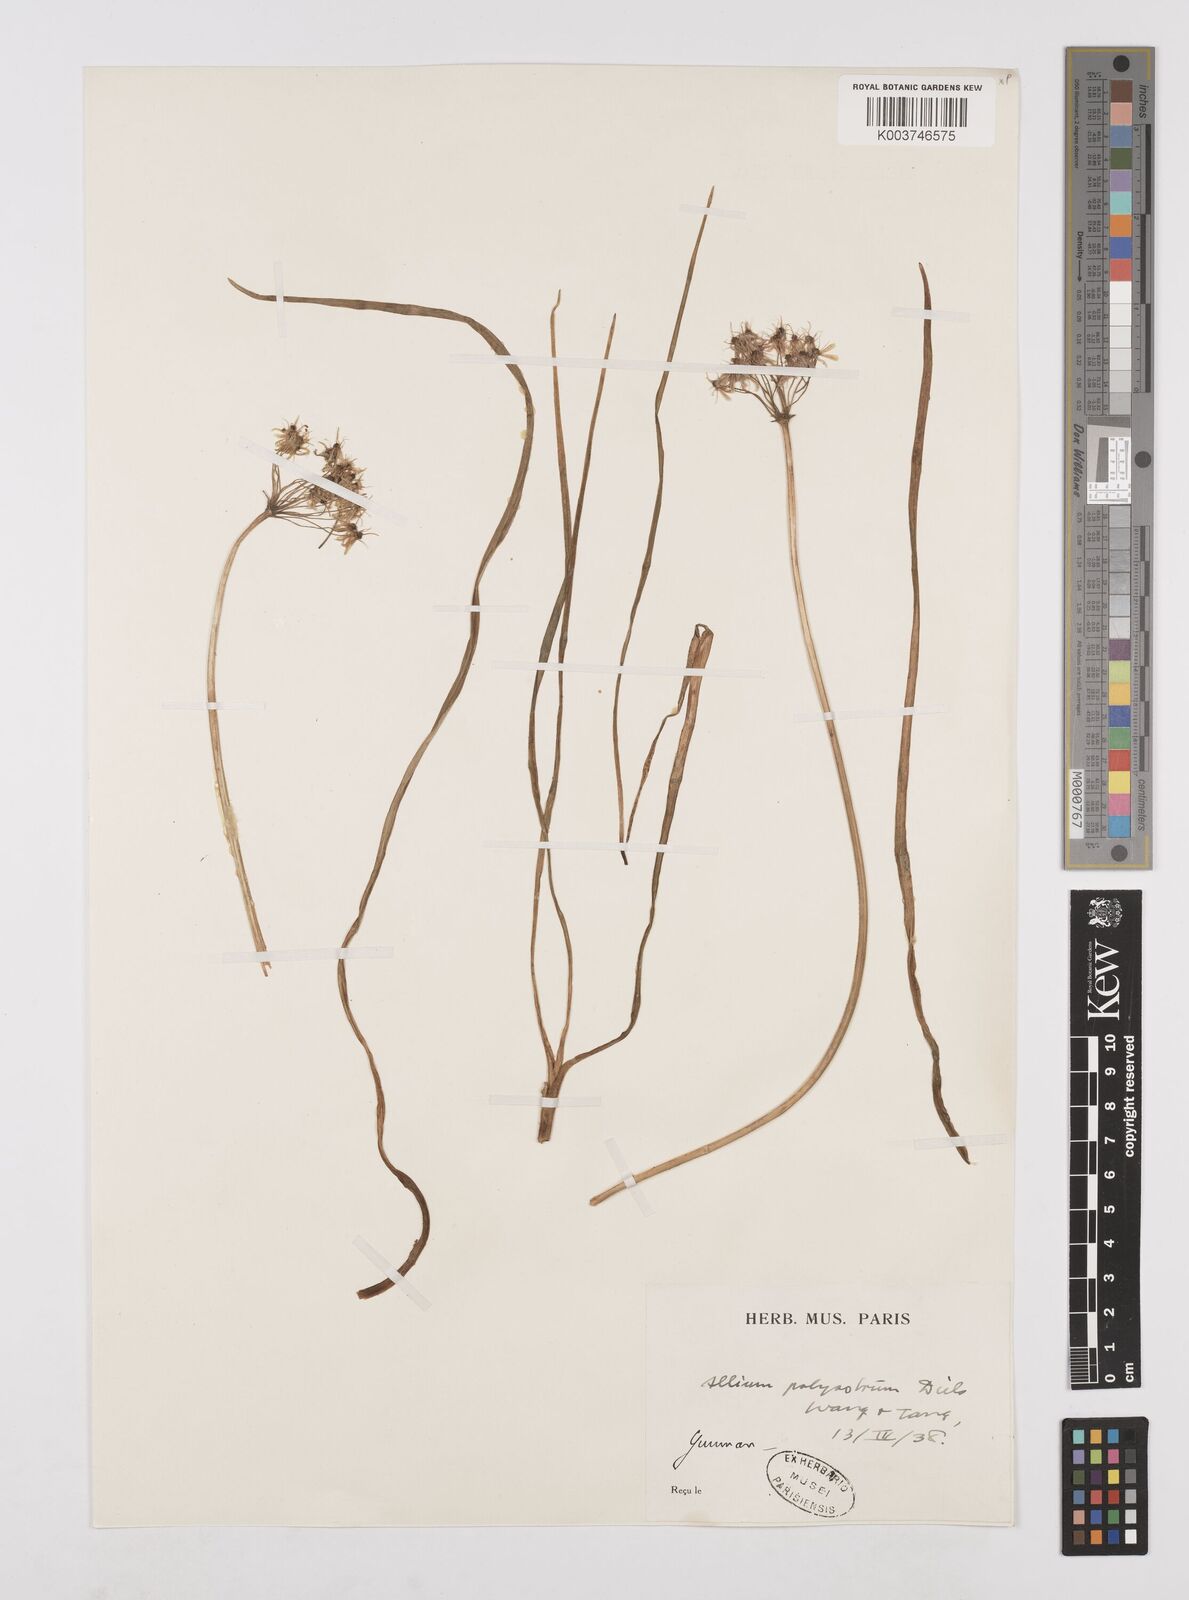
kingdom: Plantae
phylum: Tracheophyta
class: Liliopsida
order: Asparagales
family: Amaryllidaceae
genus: Allium
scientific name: Allium wallichii
